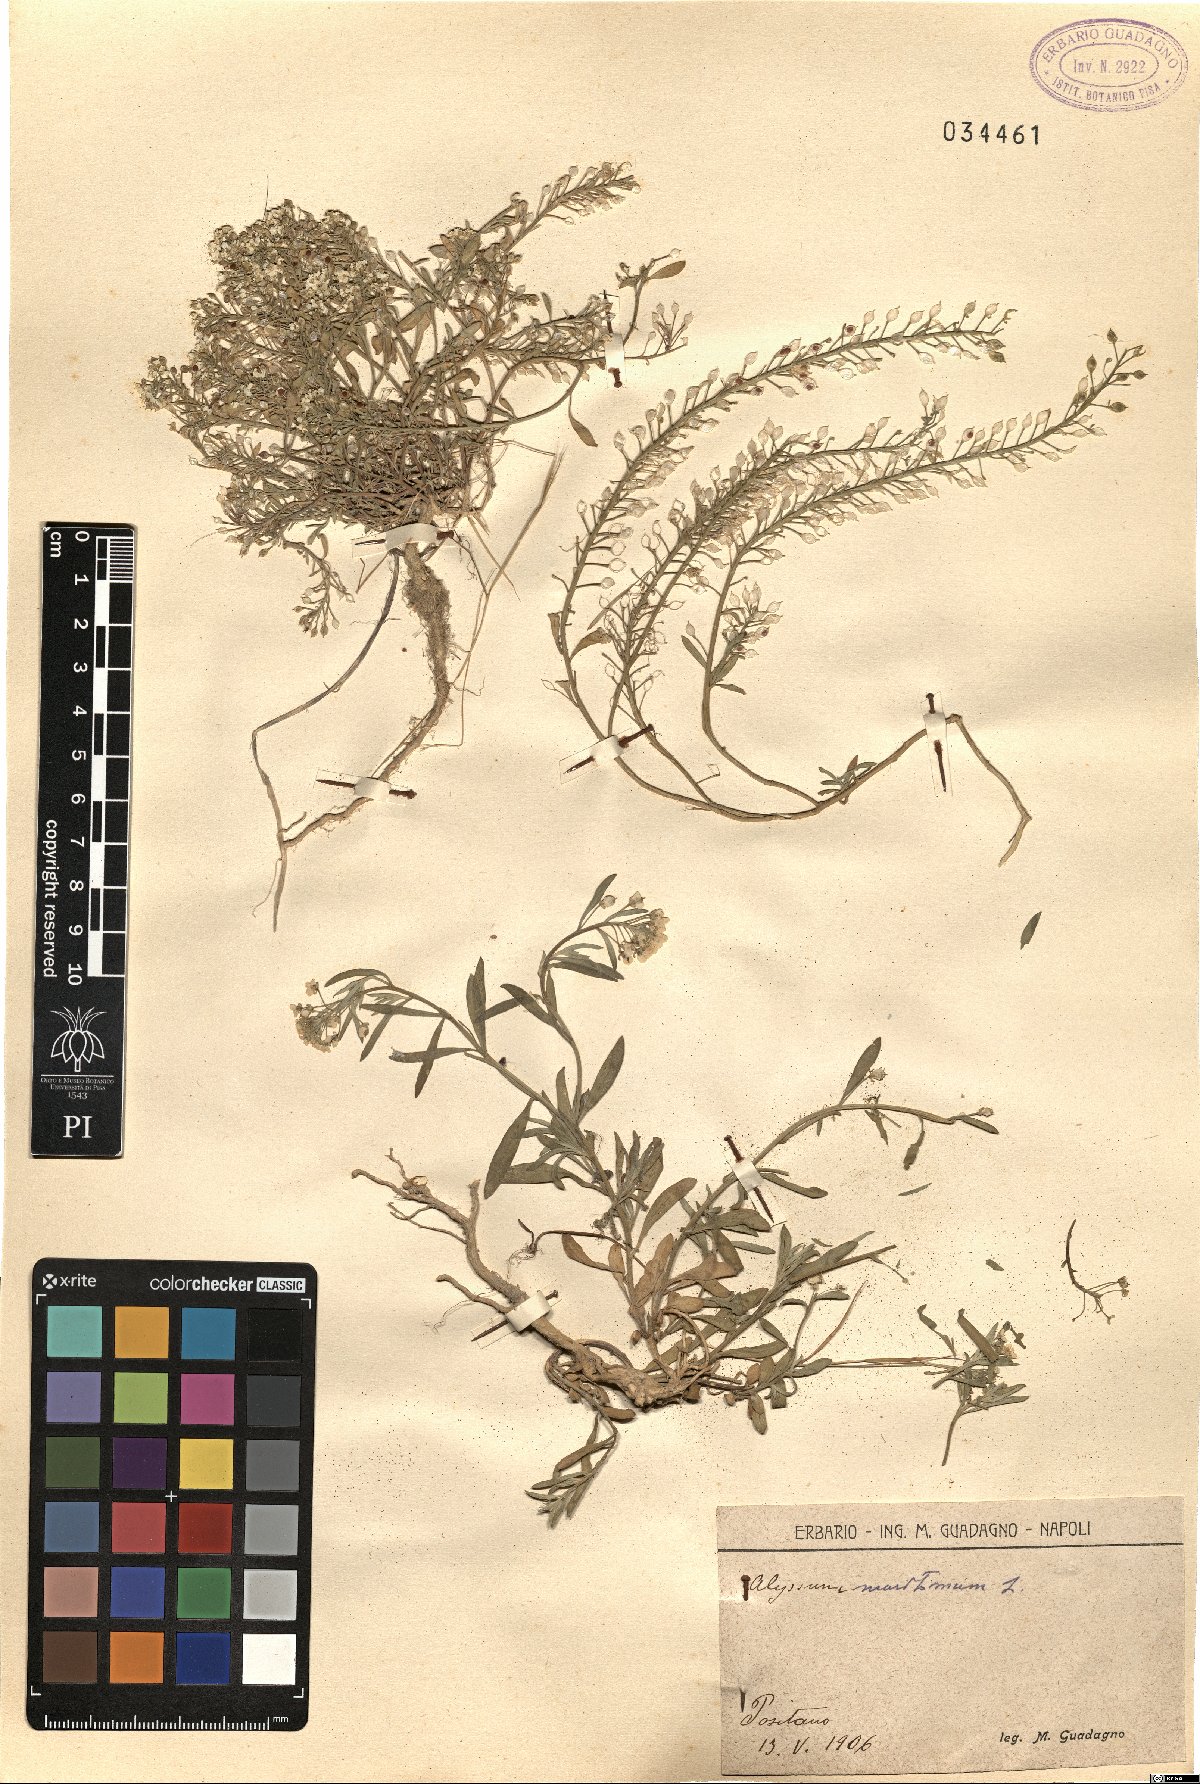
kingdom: Plantae
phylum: Tracheophyta
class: Magnoliopsida
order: Brassicales
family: Brassicaceae
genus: Lobularia
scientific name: Lobularia maritima
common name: Sweet alison
